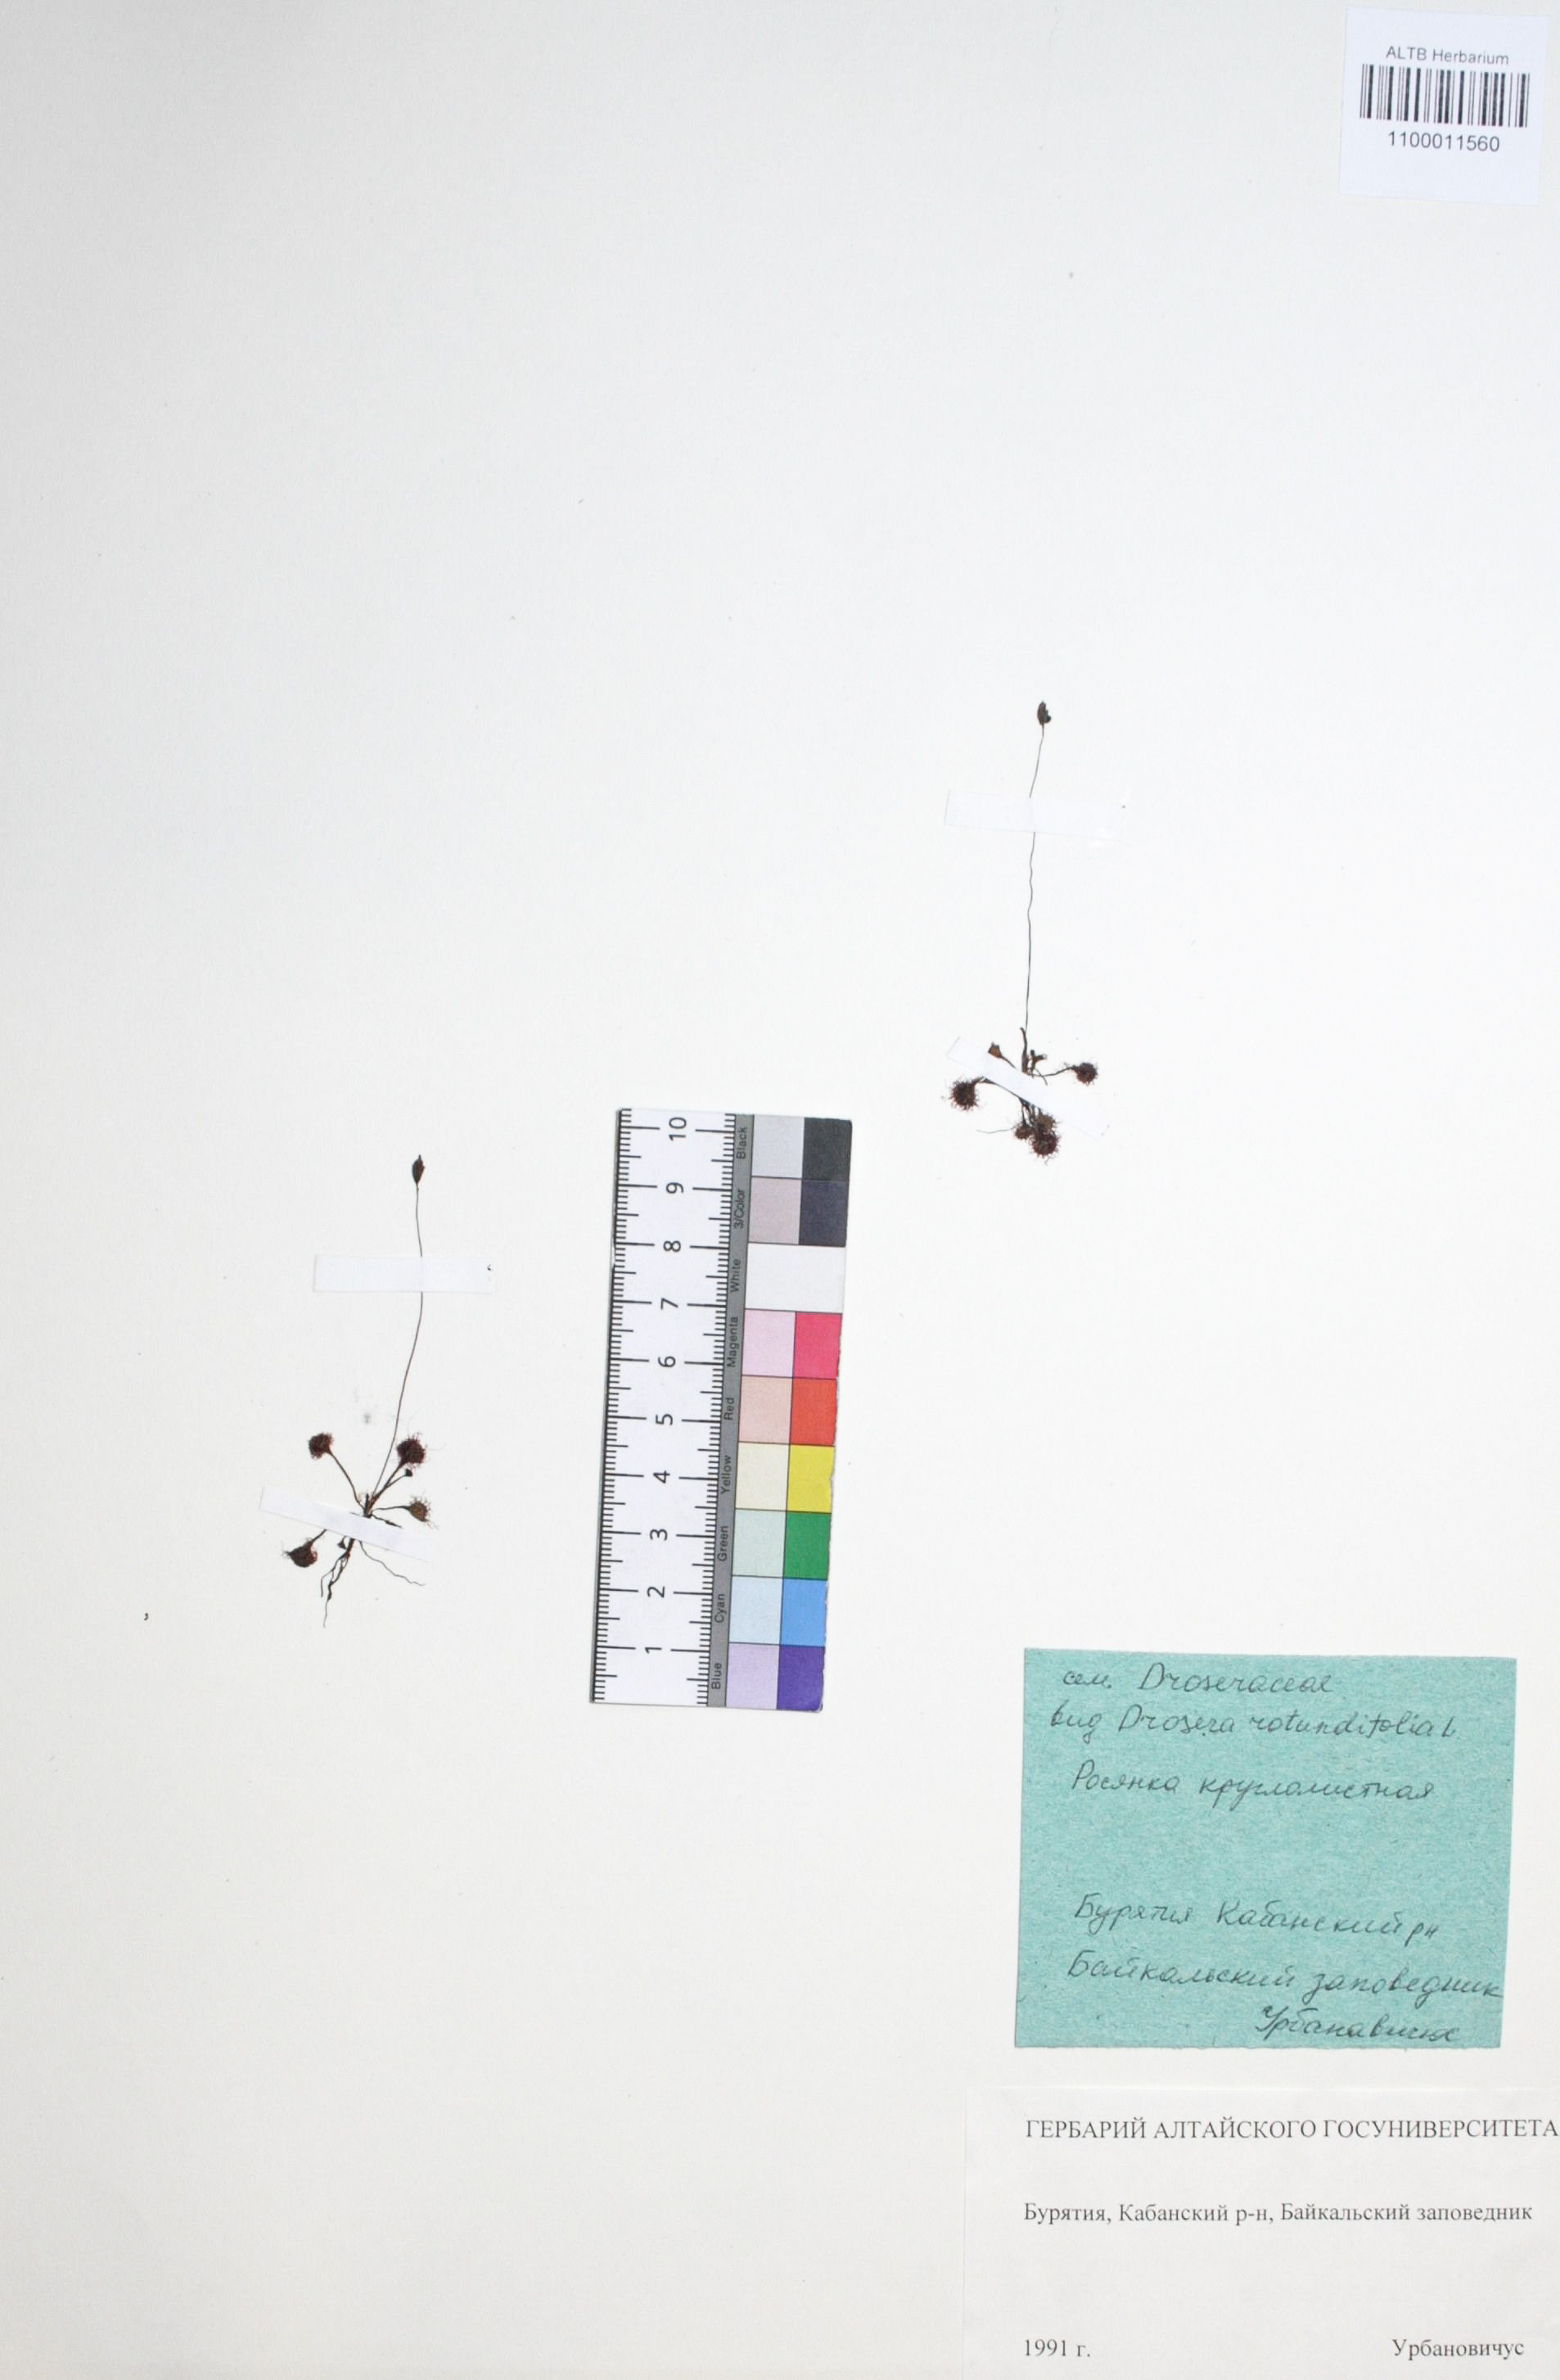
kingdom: Plantae
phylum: Tracheophyta
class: Magnoliopsida
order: Caryophyllales
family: Droseraceae
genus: Drosera
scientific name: Drosera rotundifolia
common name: Round-leaved sundew
